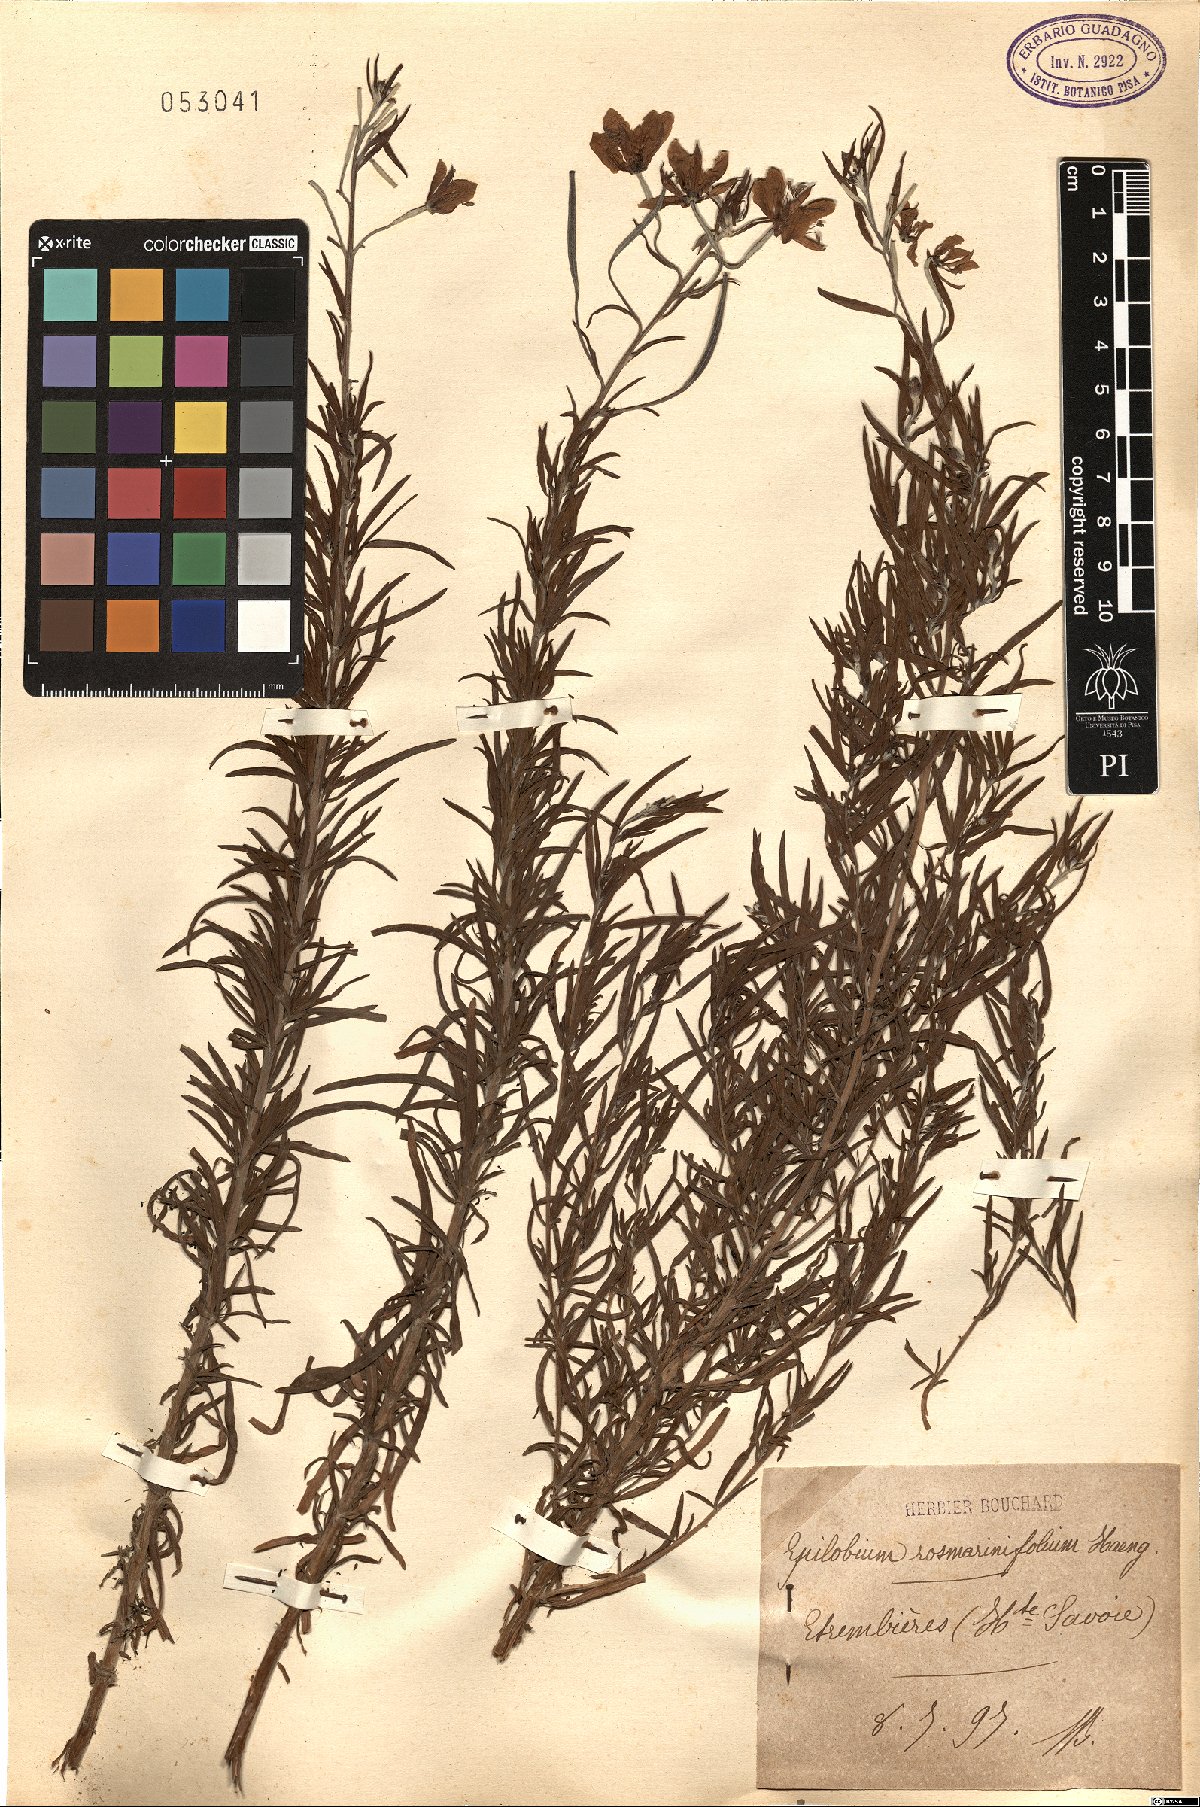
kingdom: Plantae
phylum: Tracheophyta
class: Magnoliopsida
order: Myrtales
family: Onagraceae
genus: Epilobium
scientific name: Epilobium
